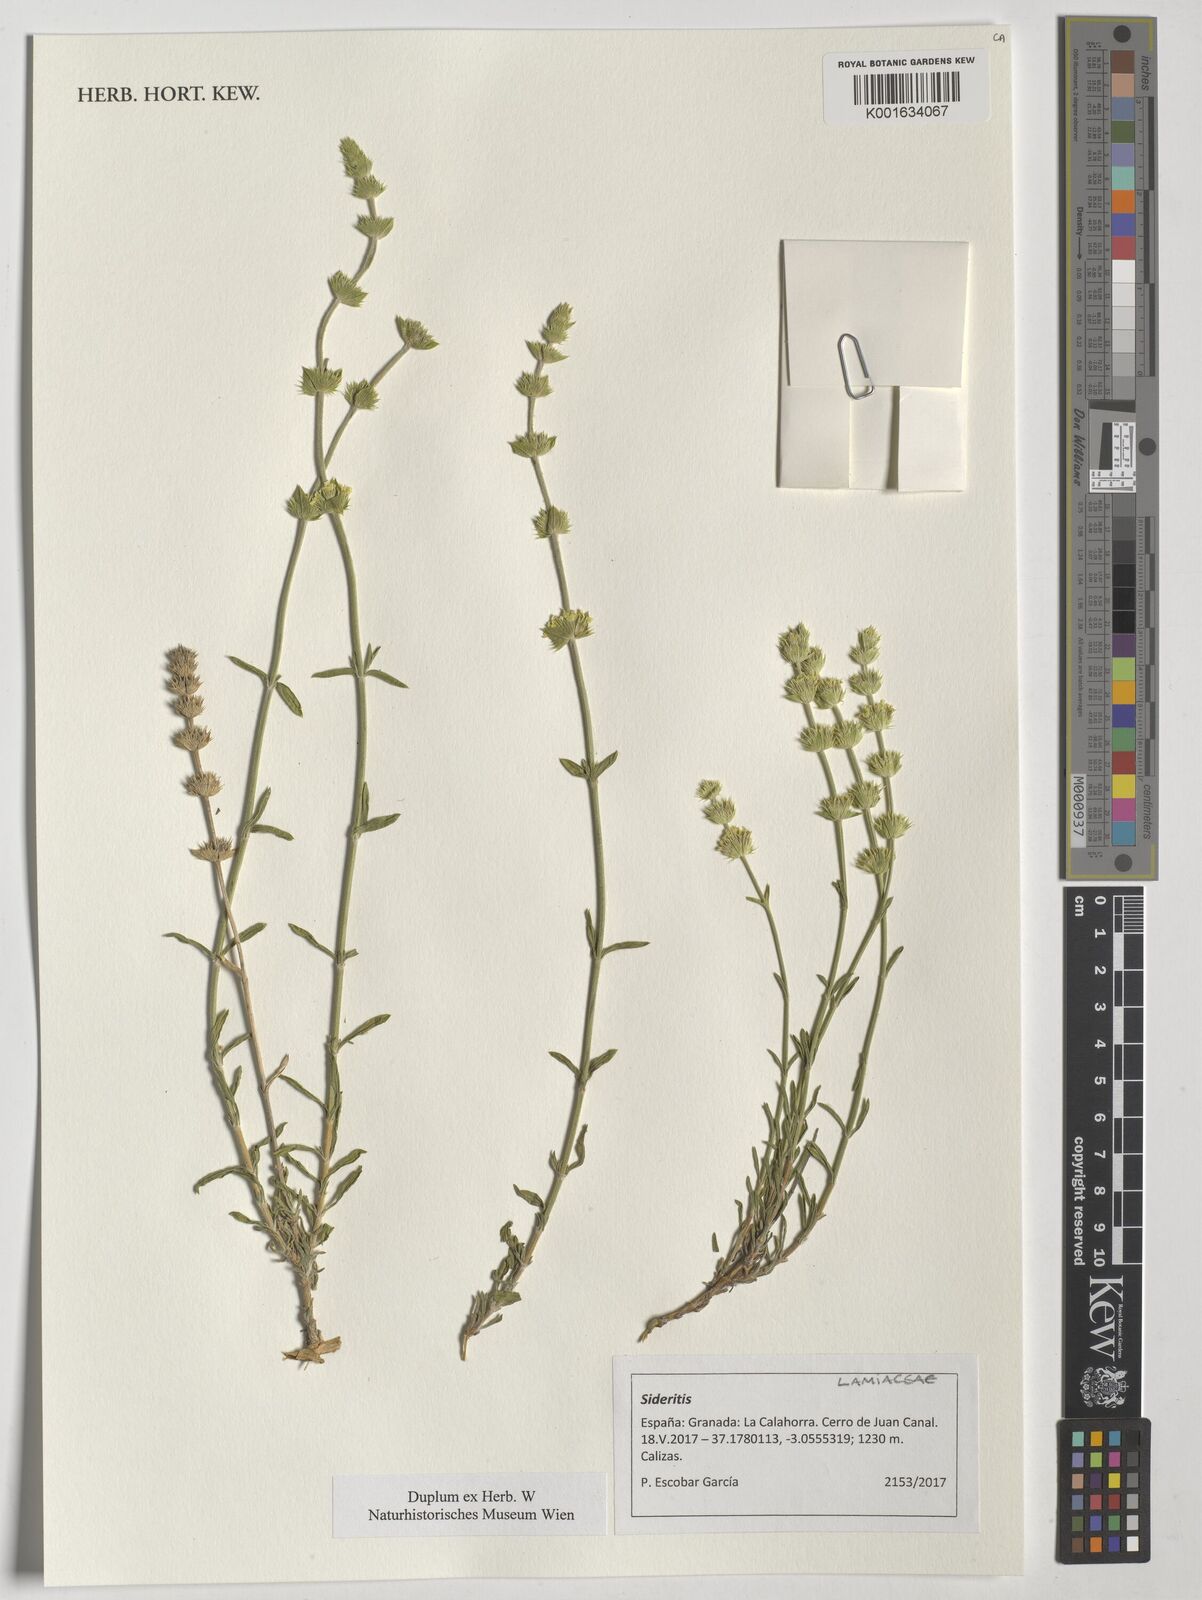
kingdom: Plantae
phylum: Tracheophyta
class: Magnoliopsida
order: Lamiales
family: Lamiaceae
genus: Sideritis
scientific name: Sideritis
